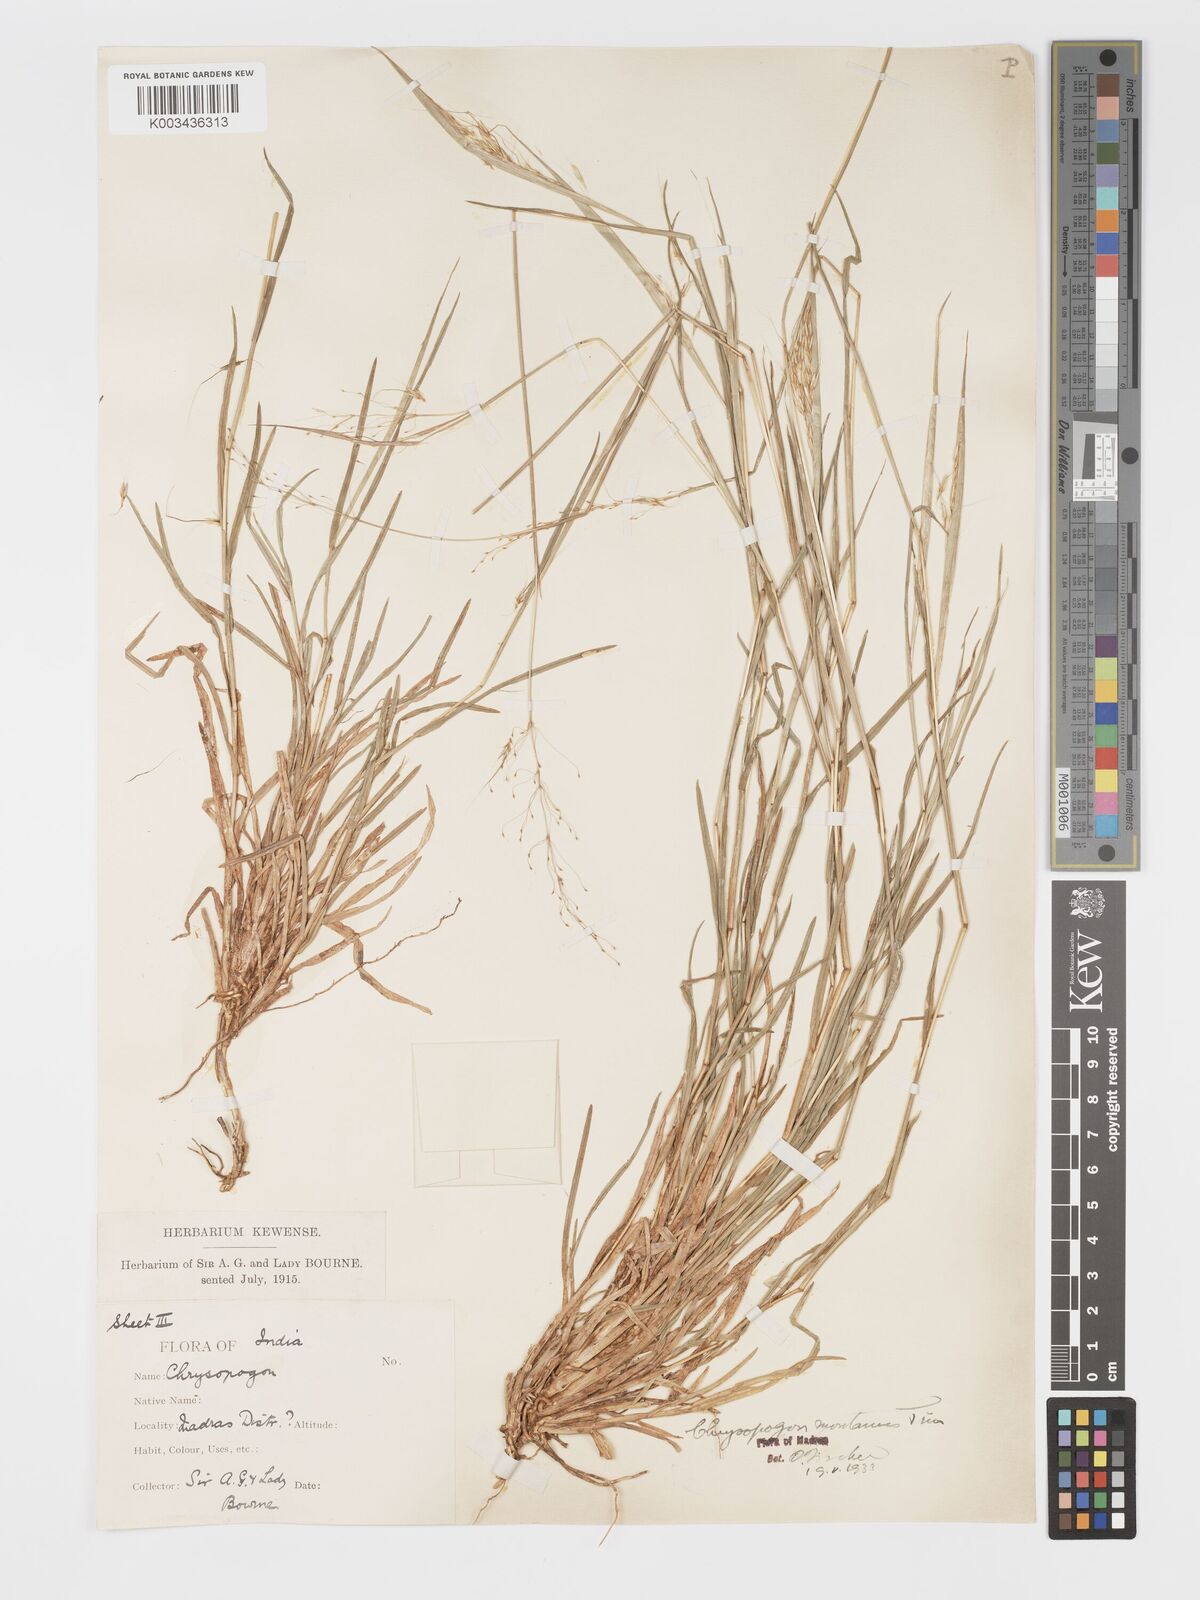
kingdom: Plantae
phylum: Tracheophyta
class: Liliopsida
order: Poales
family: Poaceae
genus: Chrysopogon
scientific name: Chrysopogon fulvus
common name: Red false beardgrass
